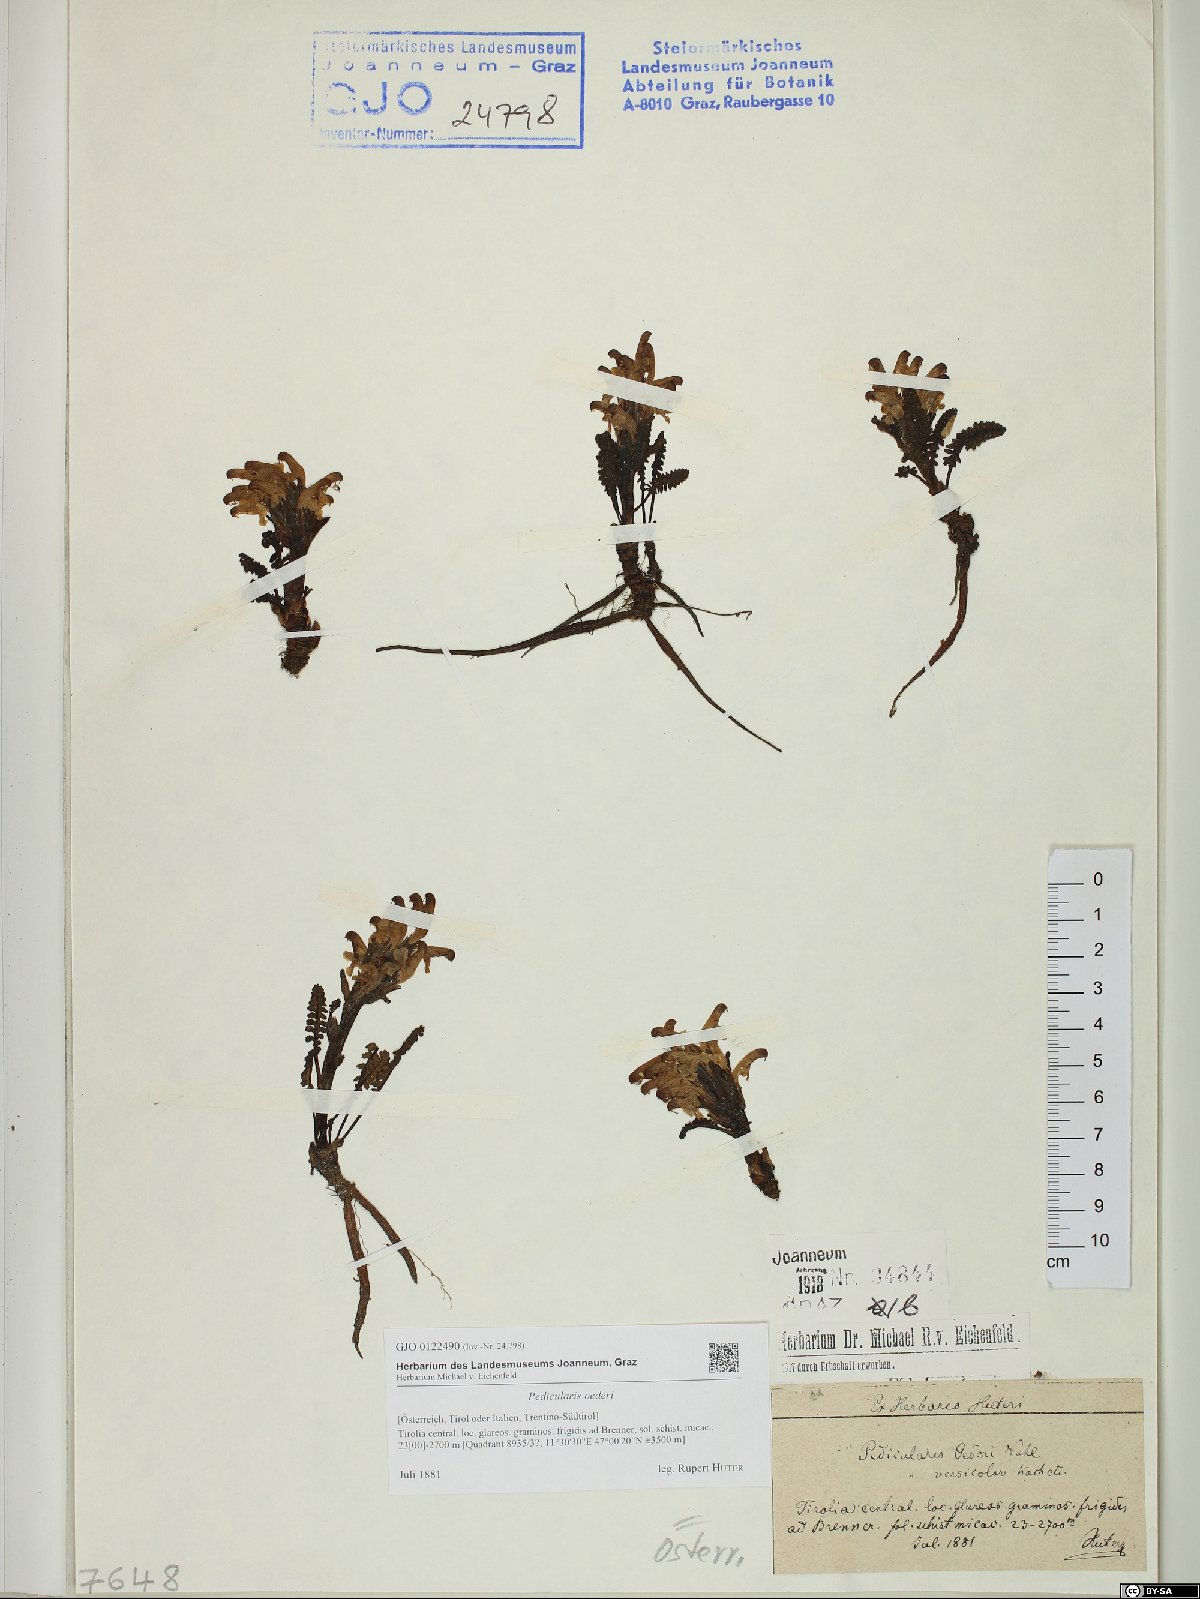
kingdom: Plantae
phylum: Tracheophyta
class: Magnoliopsida
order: Lamiales
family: Orobanchaceae
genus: Pedicularis
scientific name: Pedicularis oederi
